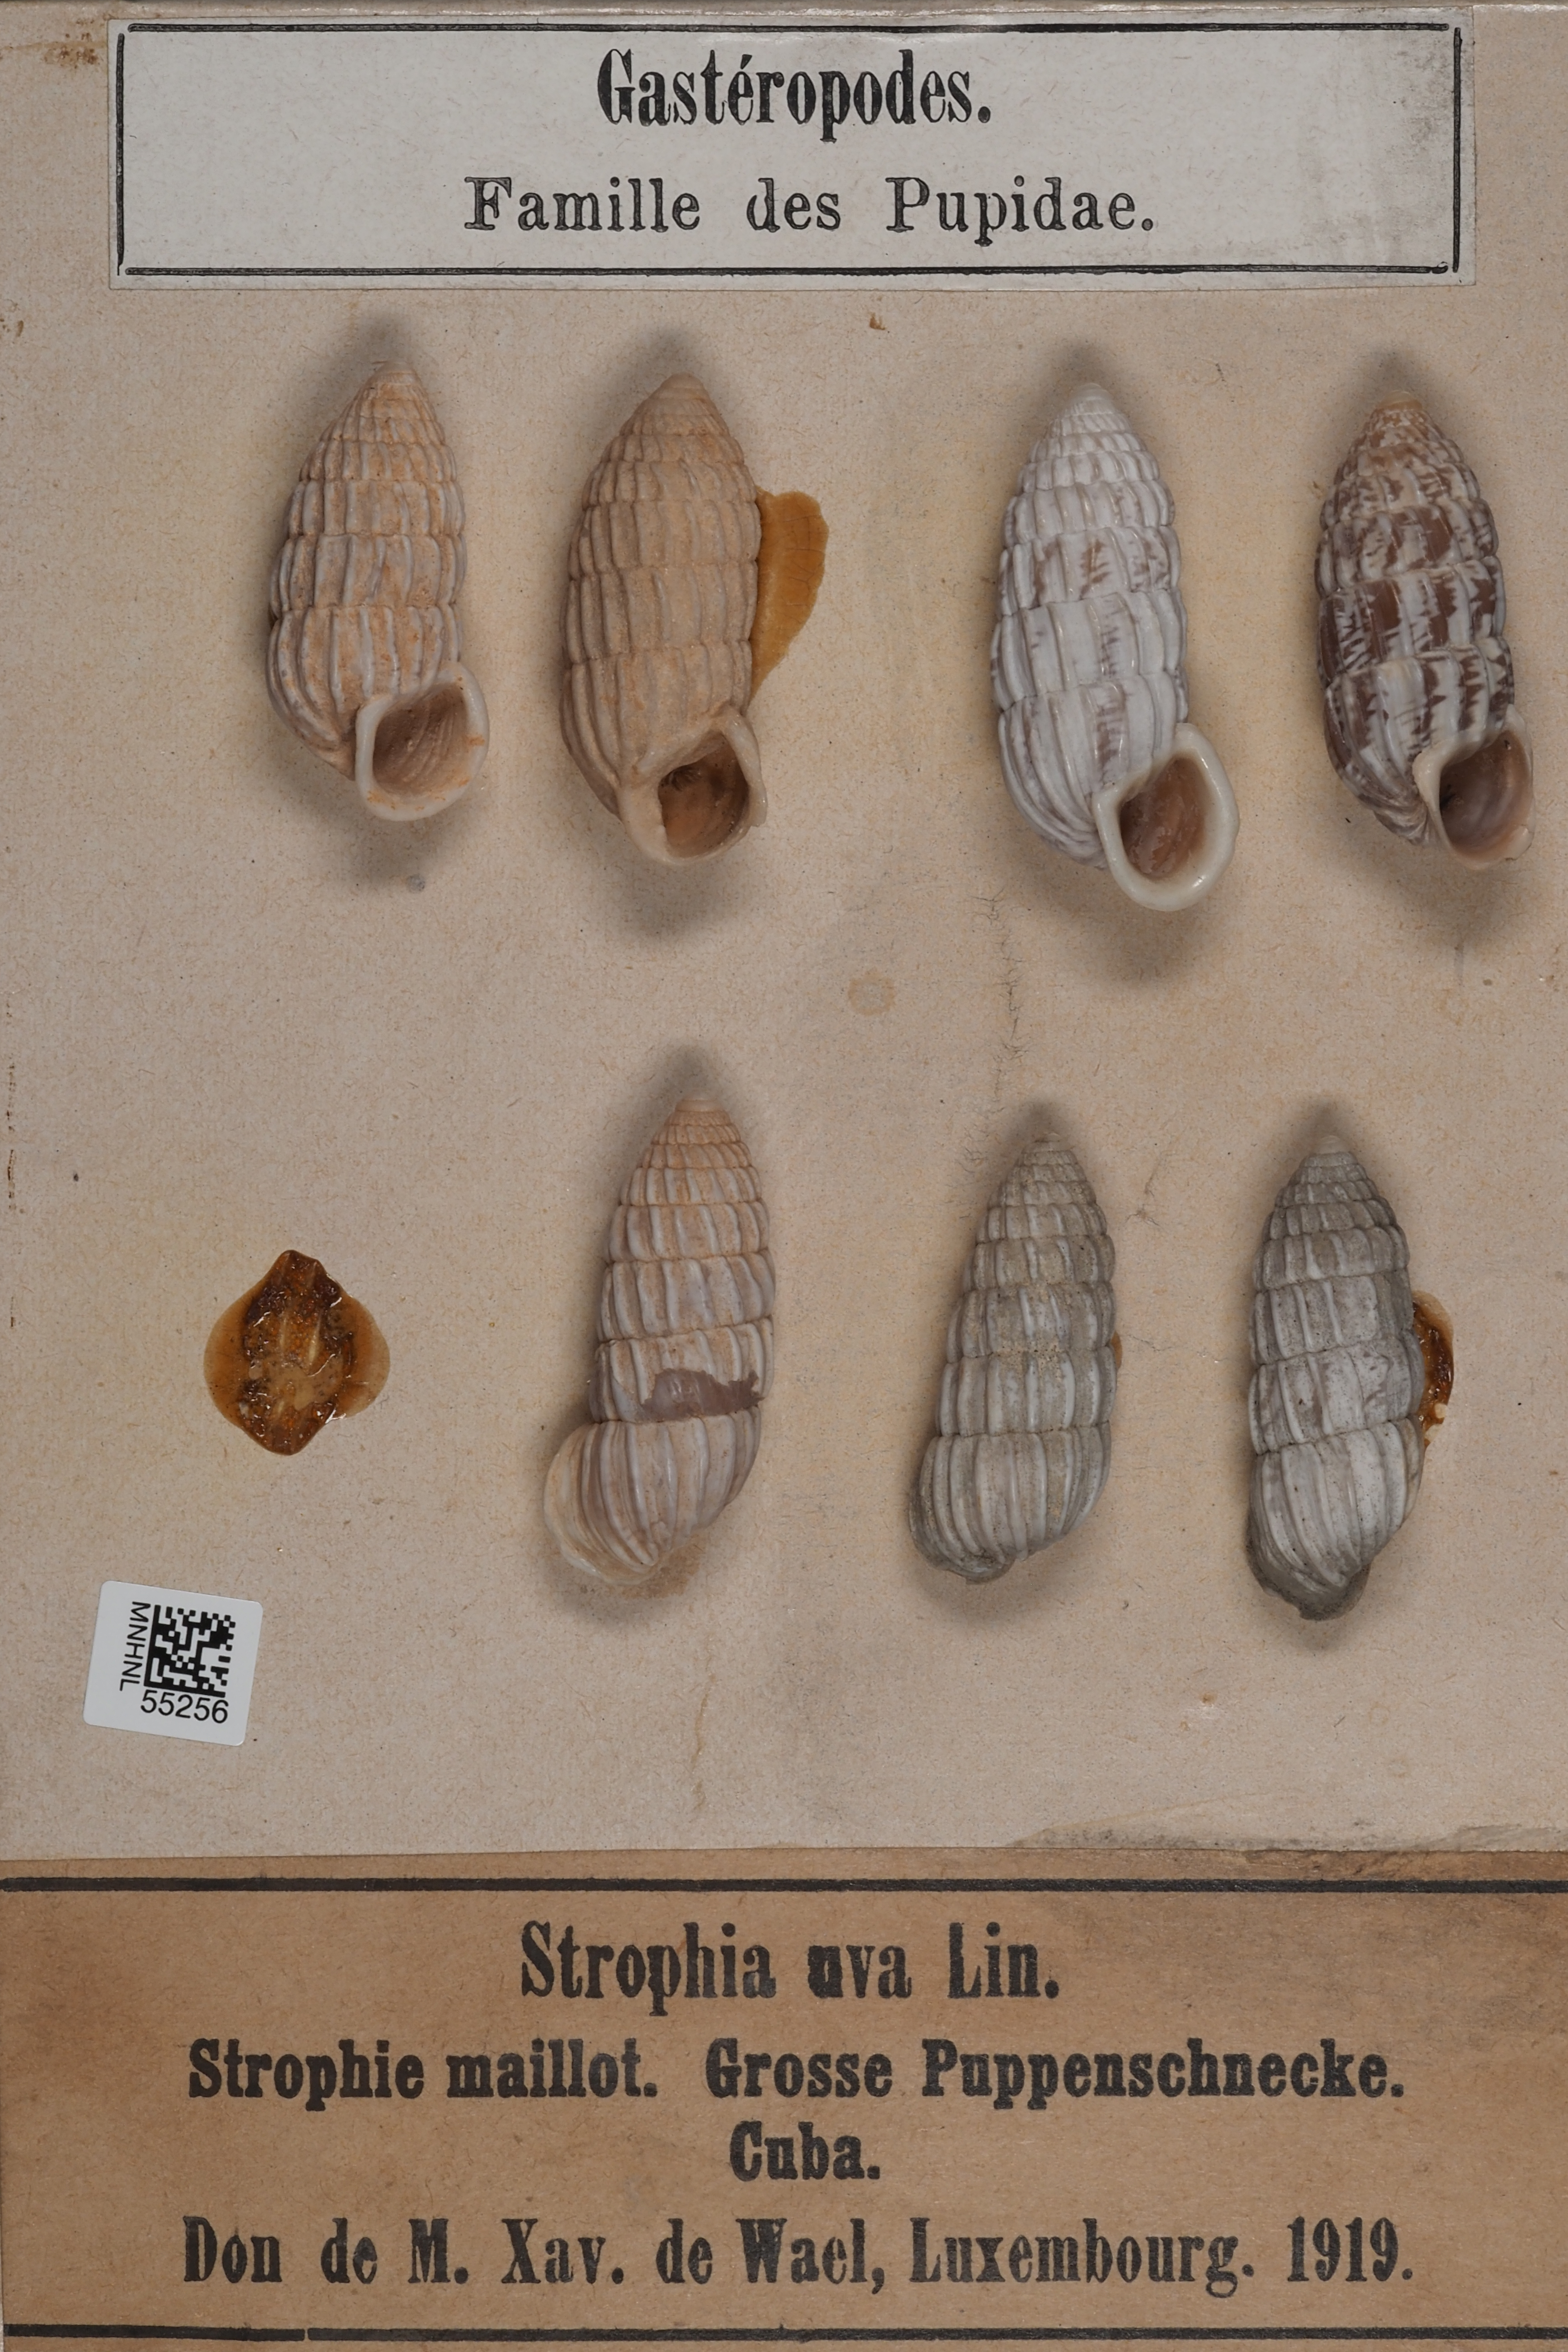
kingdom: Animalia
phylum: Mollusca
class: Gastropoda
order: Stylommatophora
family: Cerionidae
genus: Cerion
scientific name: Cerion uva
